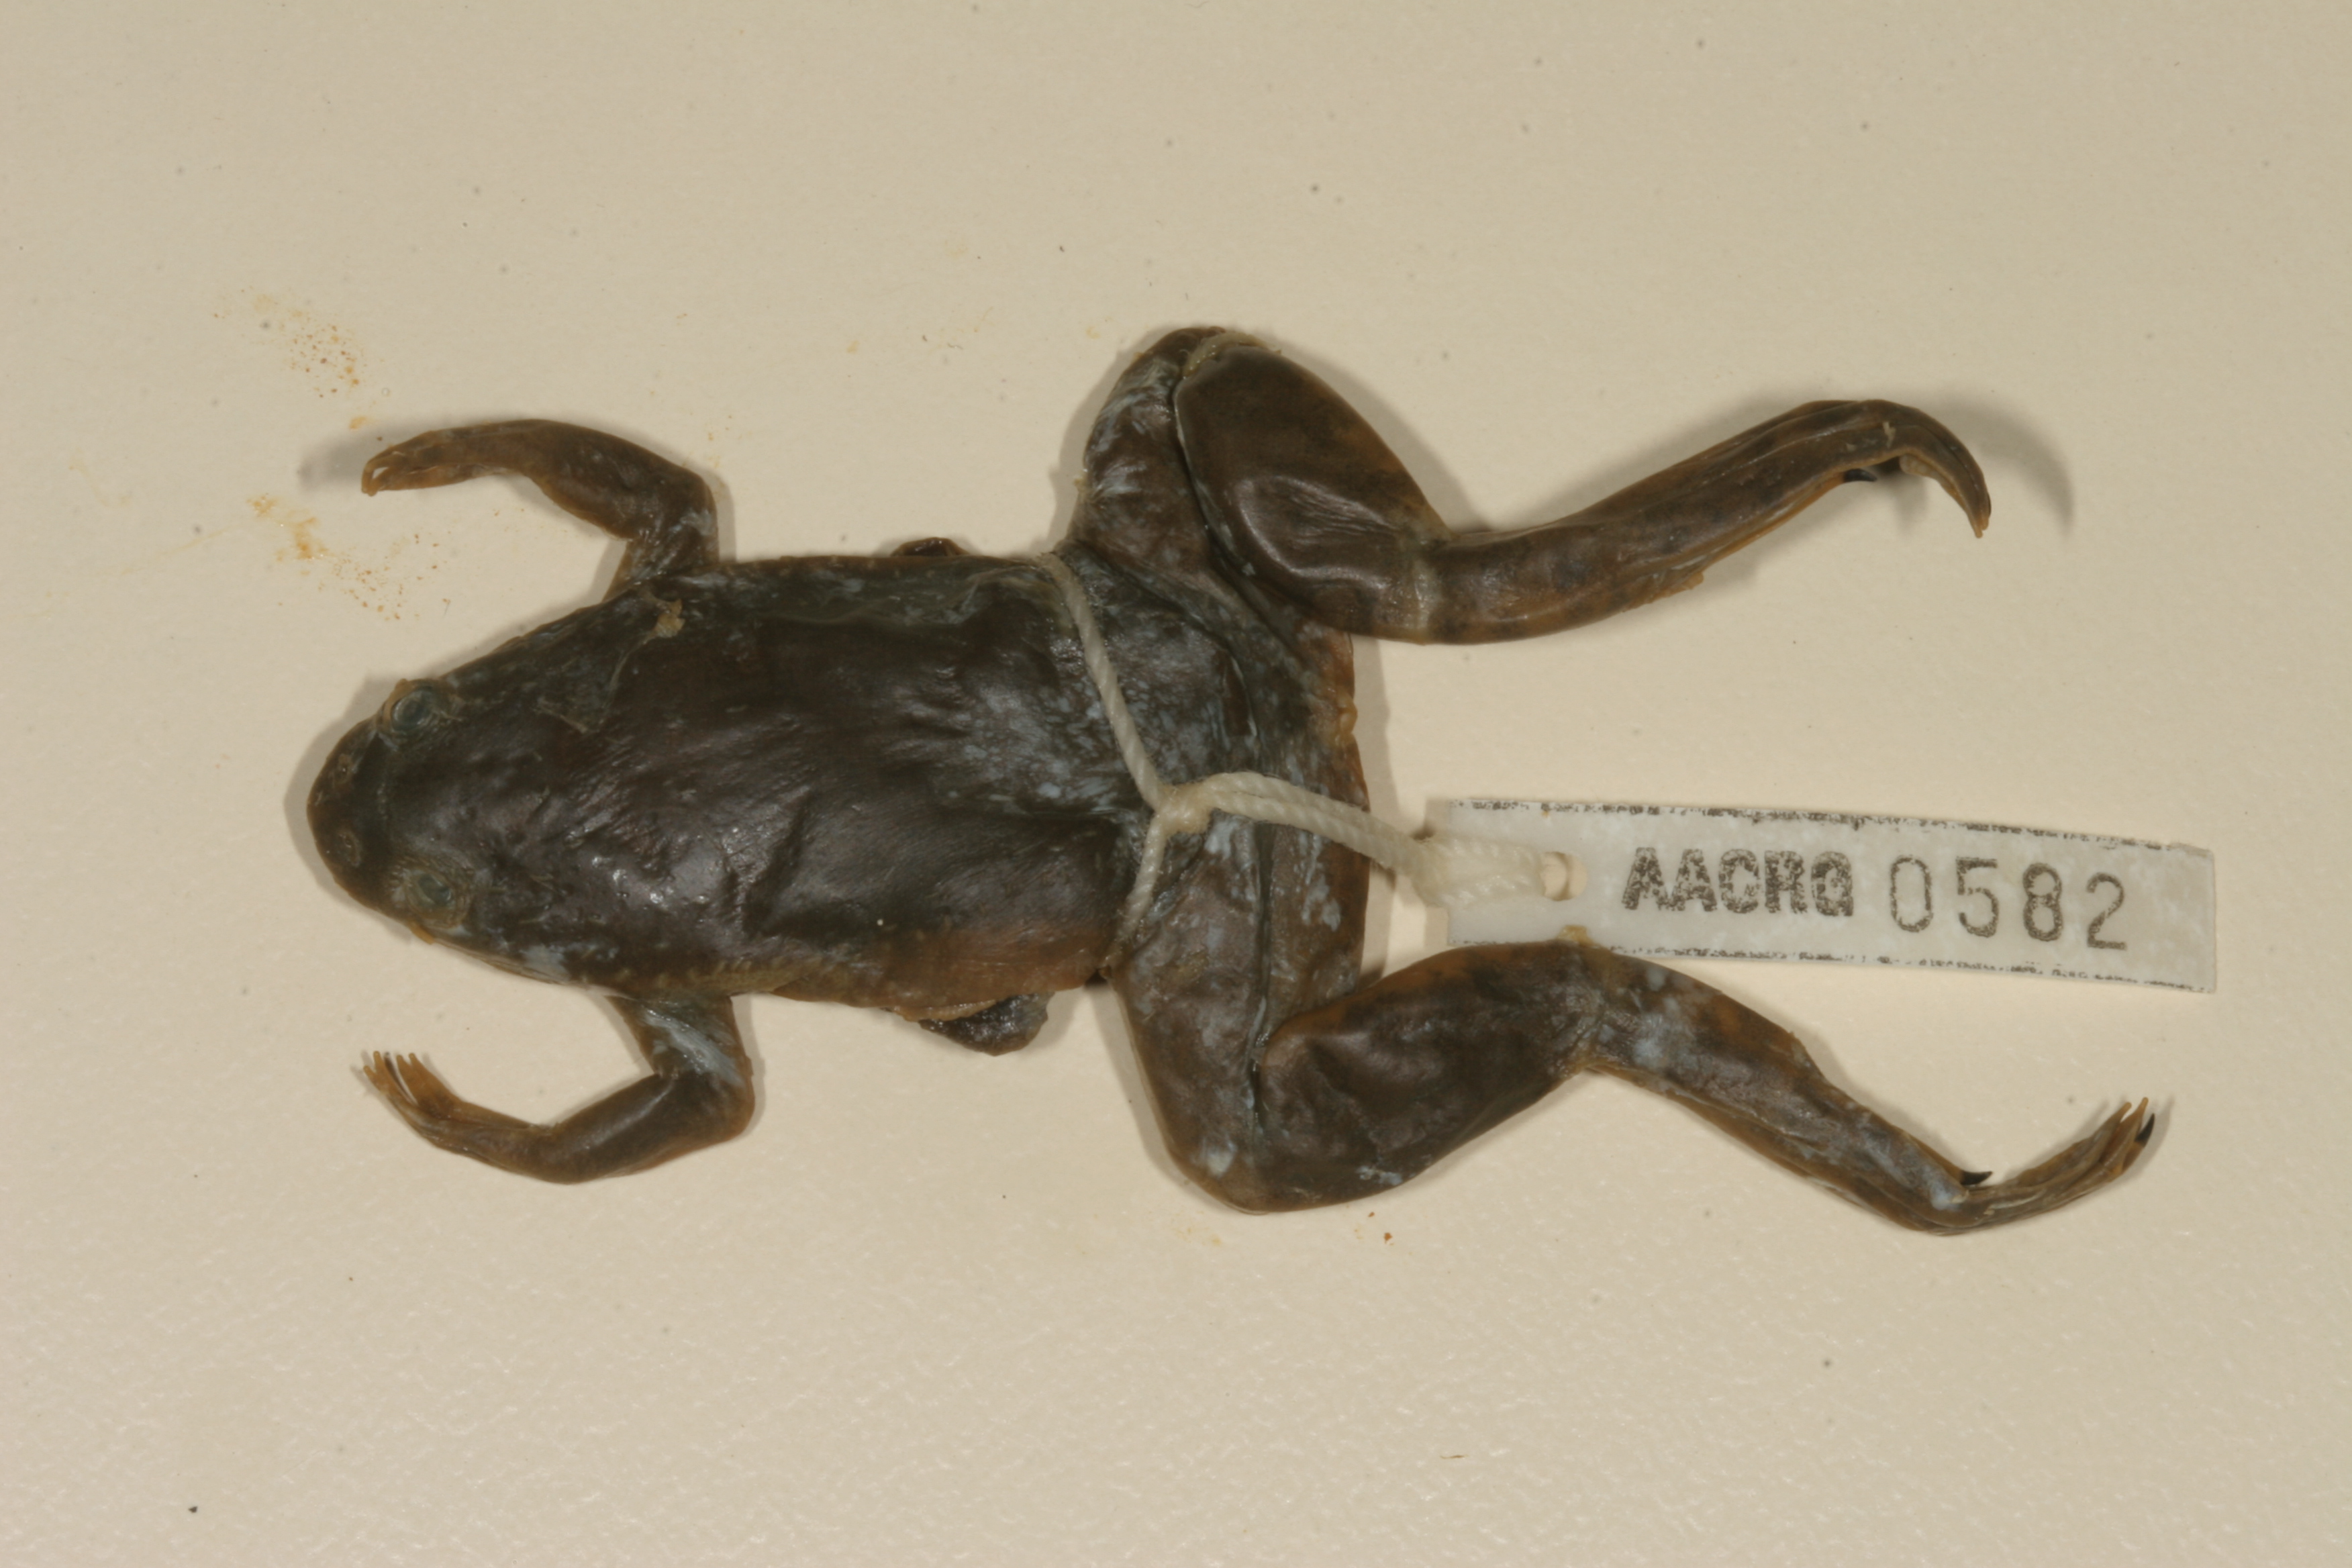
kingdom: Animalia
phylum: Chordata
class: Amphibia
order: Anura
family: Pipidae
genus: Xenopus
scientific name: Xenopus muelleri
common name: Muller's clawed frog
